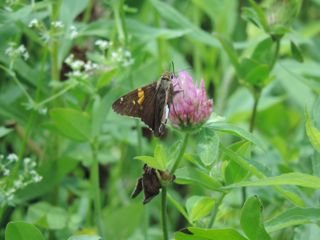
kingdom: Animalia
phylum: Arthropoda
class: Insecta
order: Lepidoptera
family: Hesperiidae
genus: Epargyreus
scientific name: Epargyreus clarus
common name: Silver-spotted Skipper
